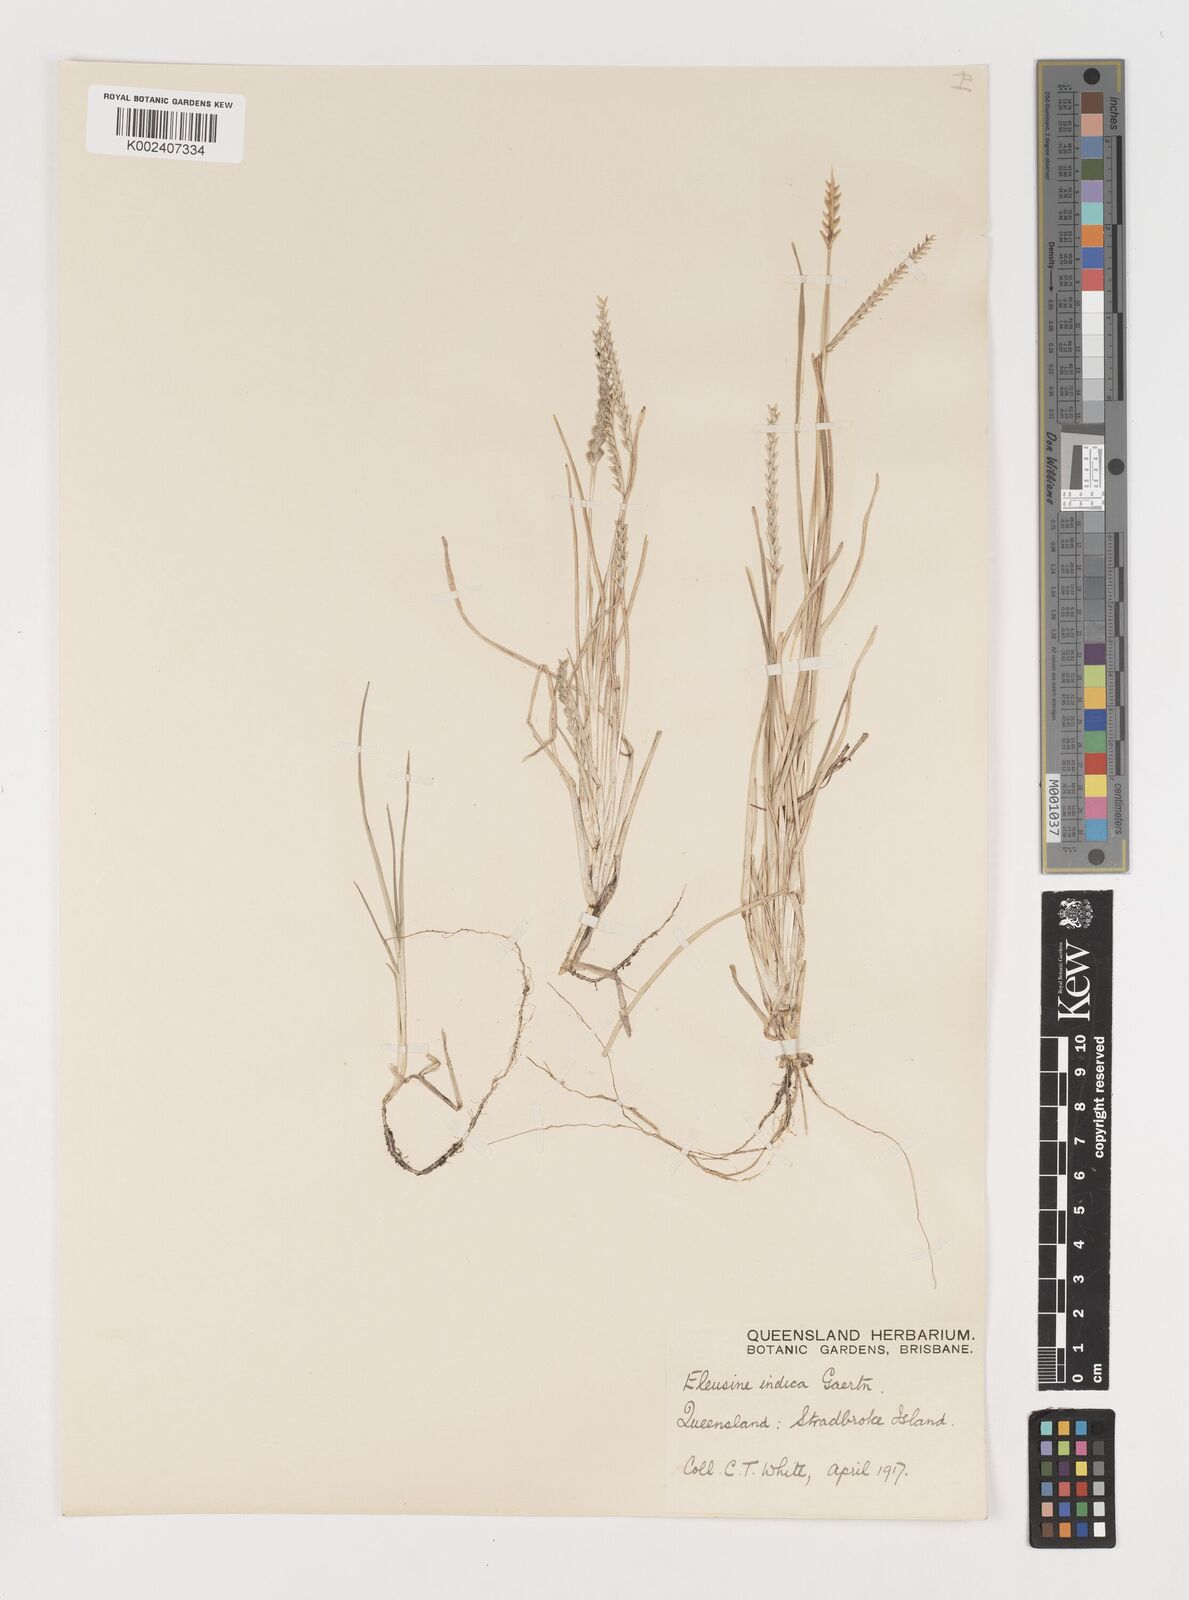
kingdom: Plantae
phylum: Tracheophyta
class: Liliopsida
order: Poales
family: Poaceae
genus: Eleusine
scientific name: Eleusine indica
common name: Yard-grass
